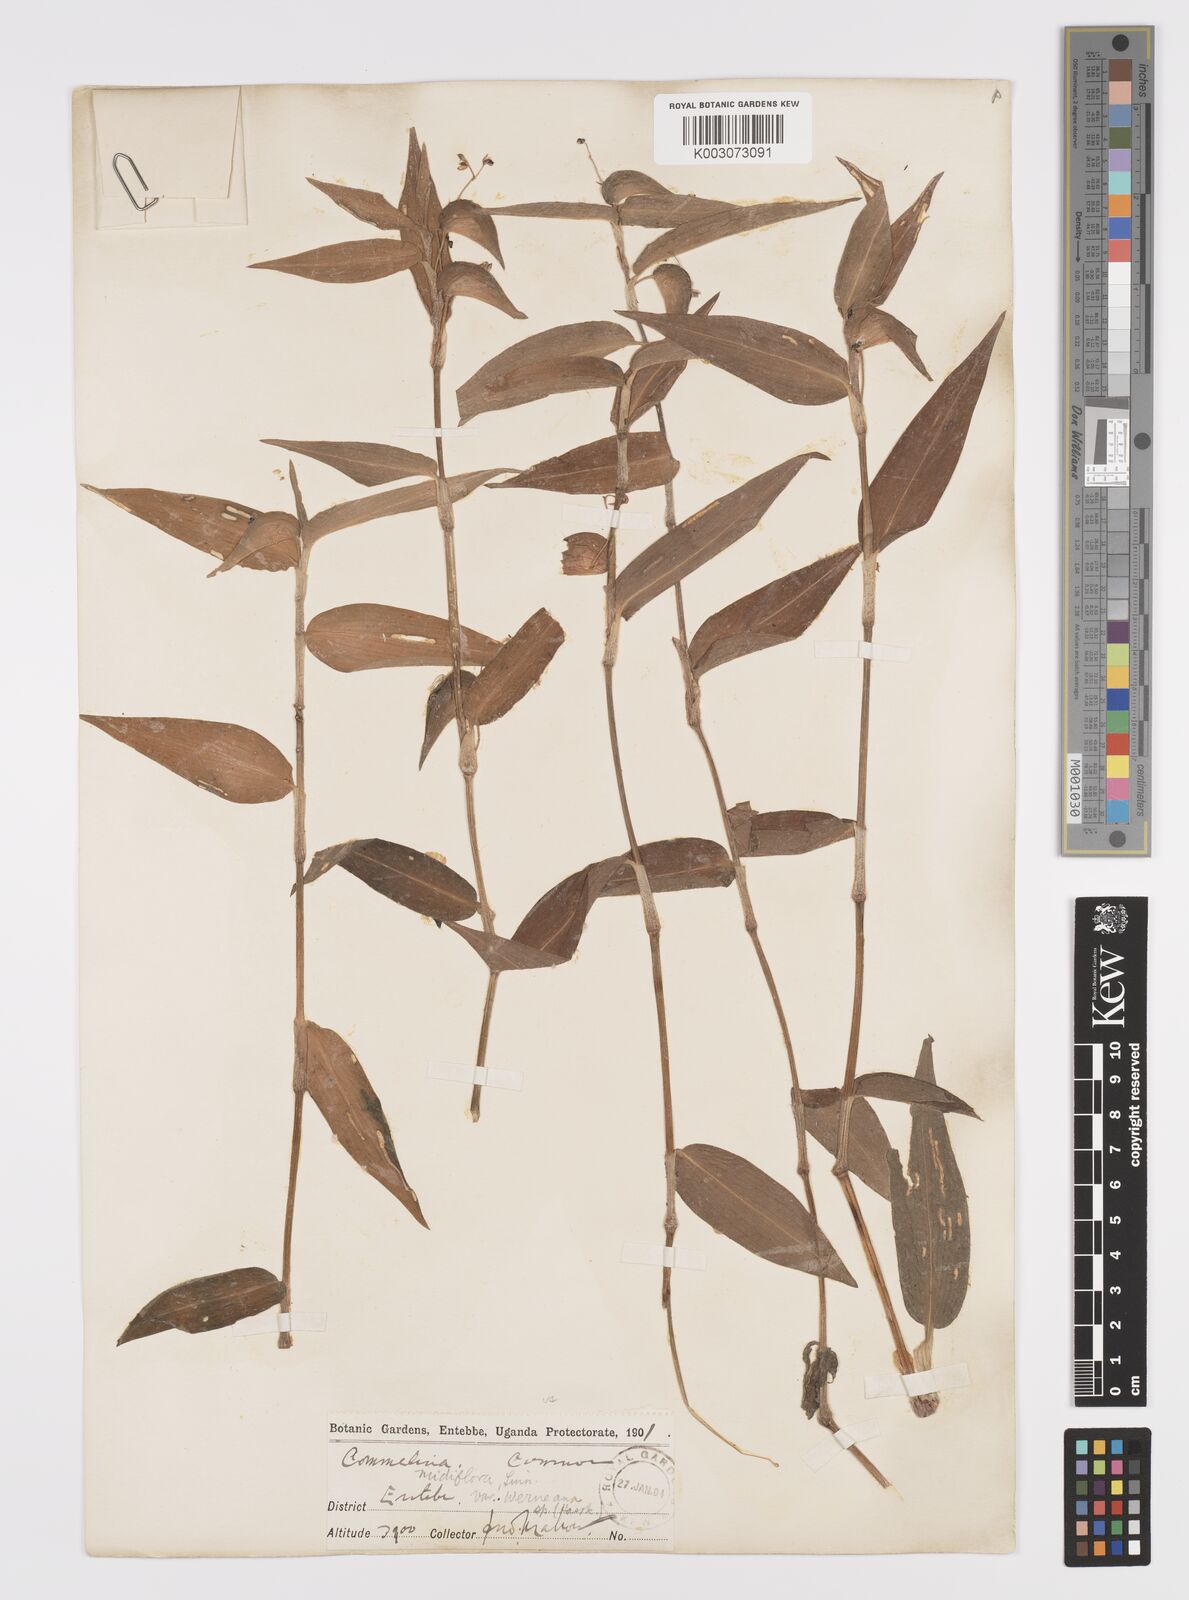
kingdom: Plantae
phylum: Tracheophyta
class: Liliopsida
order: Commelinales
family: Commelinaceae
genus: Commelina
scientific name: Commelina diffusa
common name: Climbing dayflower
